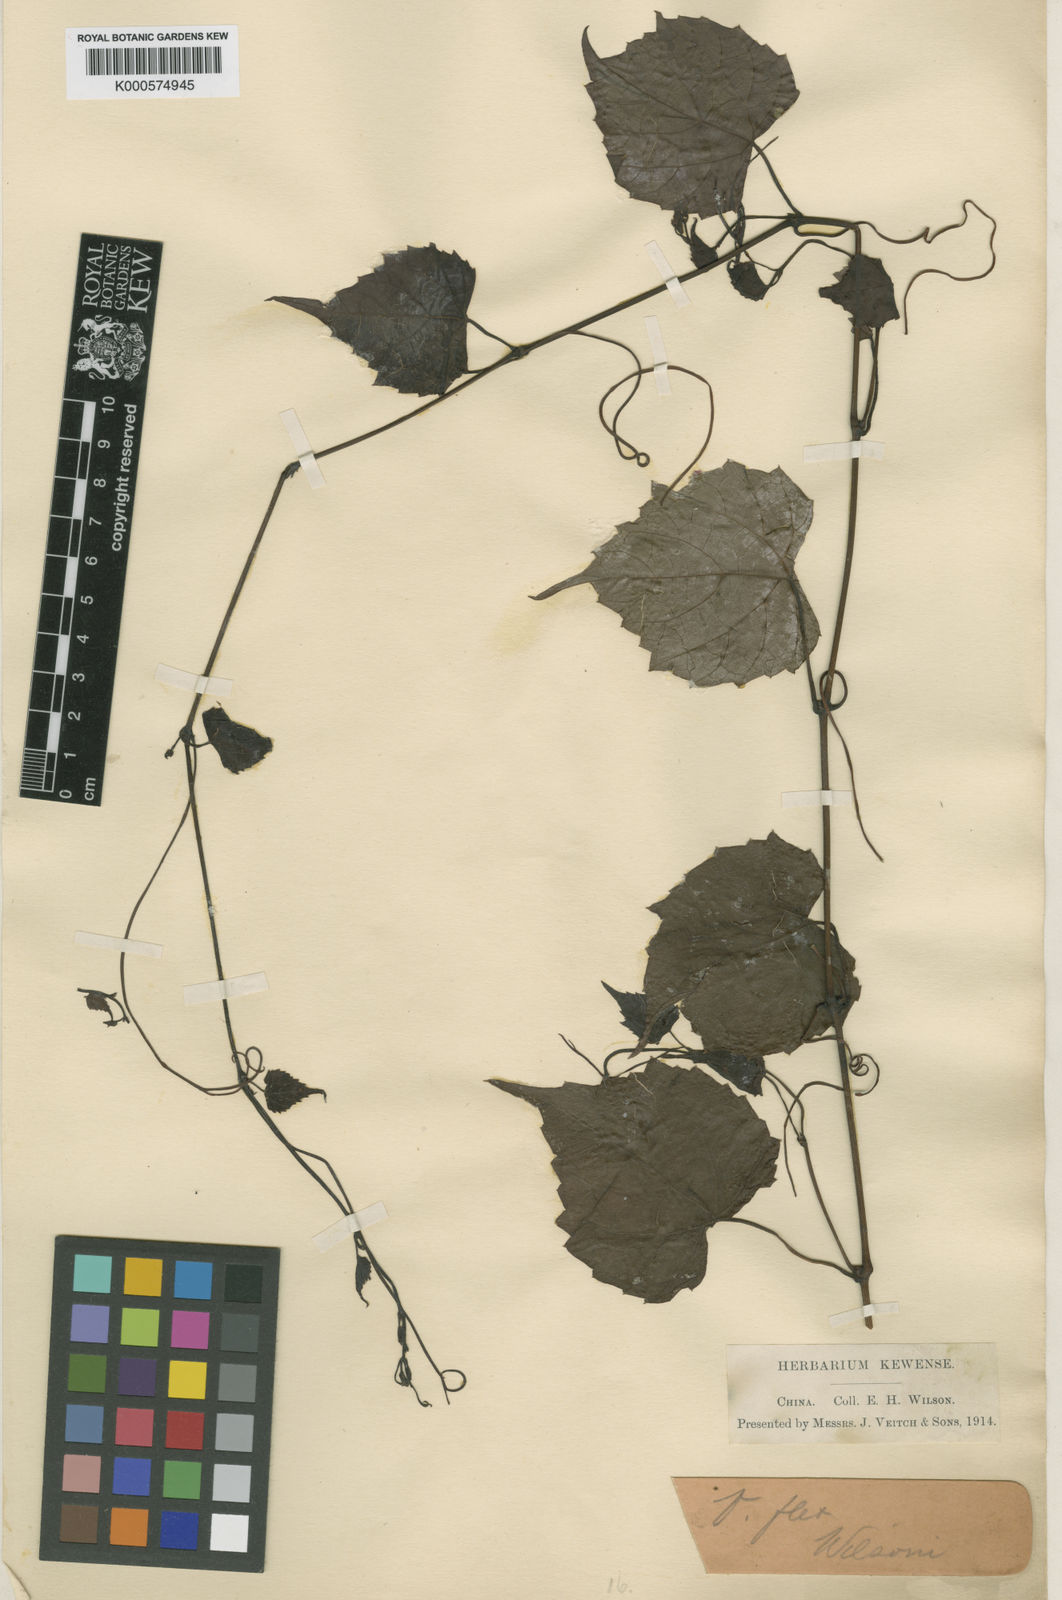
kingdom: Plantae
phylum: Tracheophyta
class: Magnoliopsida
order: Vitales
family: Vitaceae
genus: Vitis
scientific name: Vitis flexuosa
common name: Creeping grape
